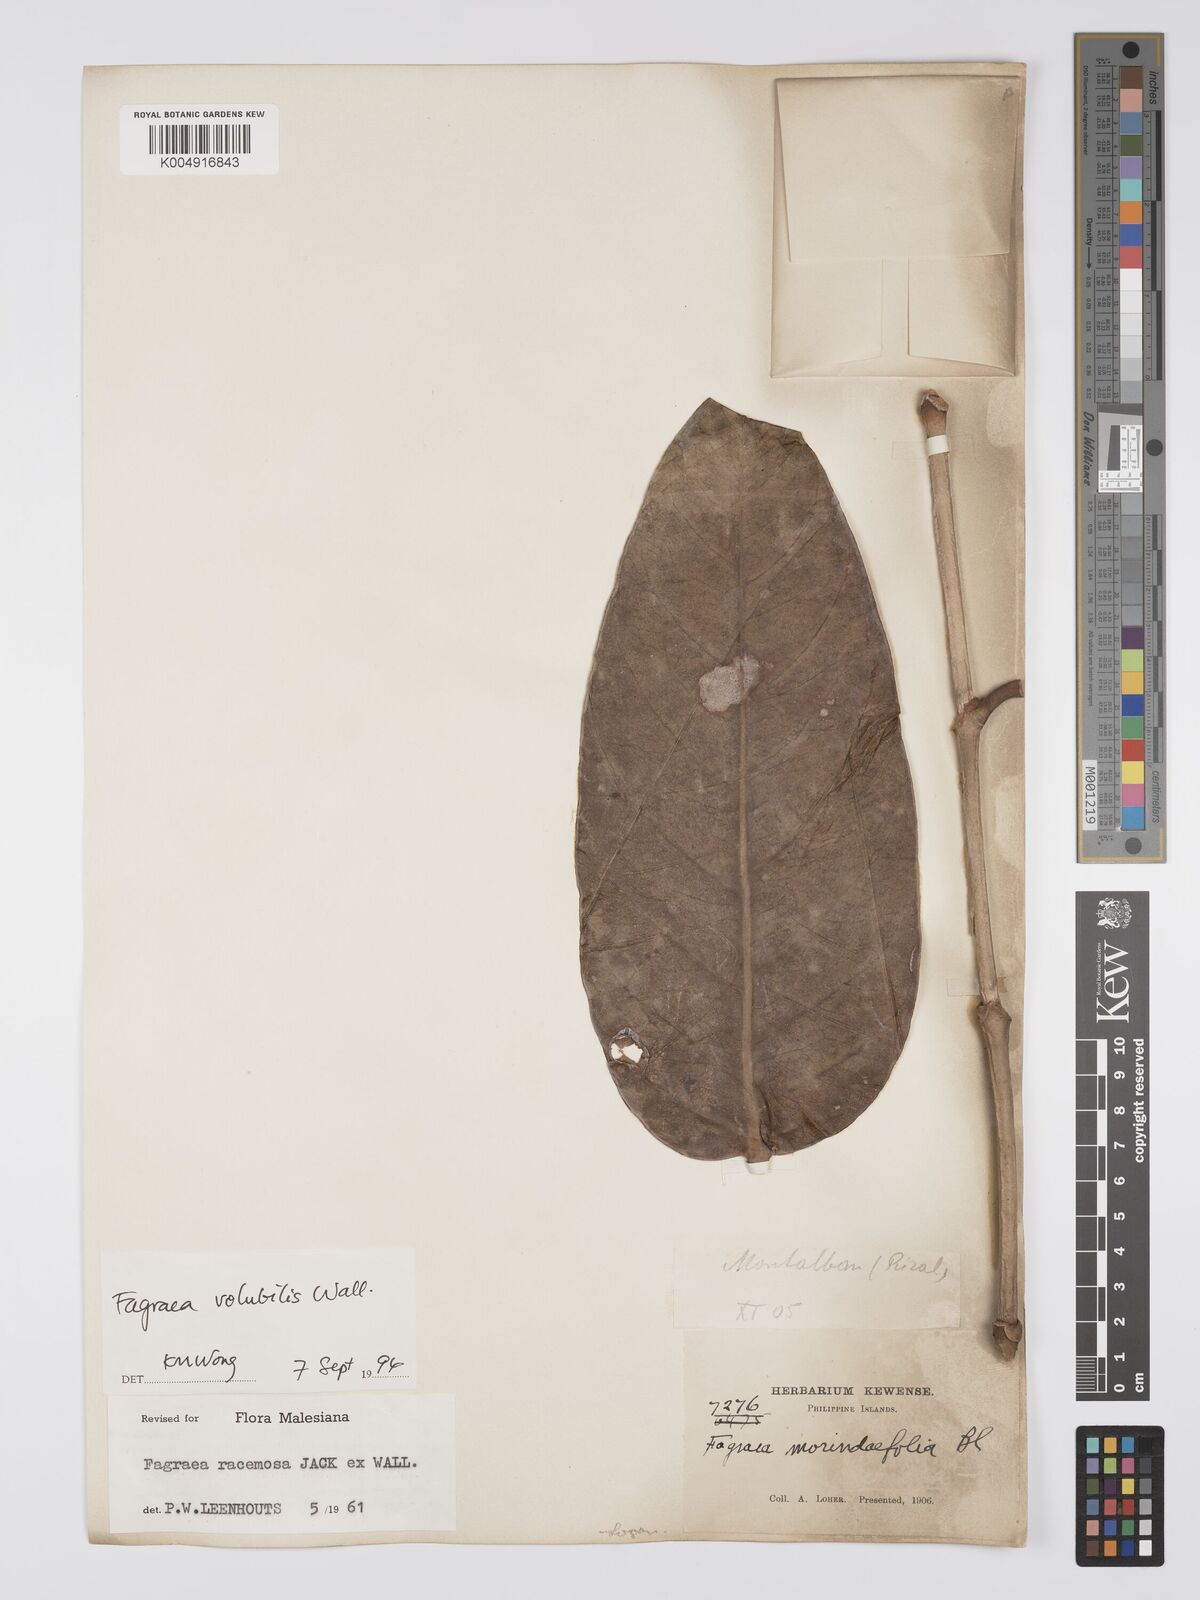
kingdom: Plantae
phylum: Tracheophyta
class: Magnoliopsida
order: Gentianales
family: Gentianaceae
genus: Utania
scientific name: Utania racemosa
